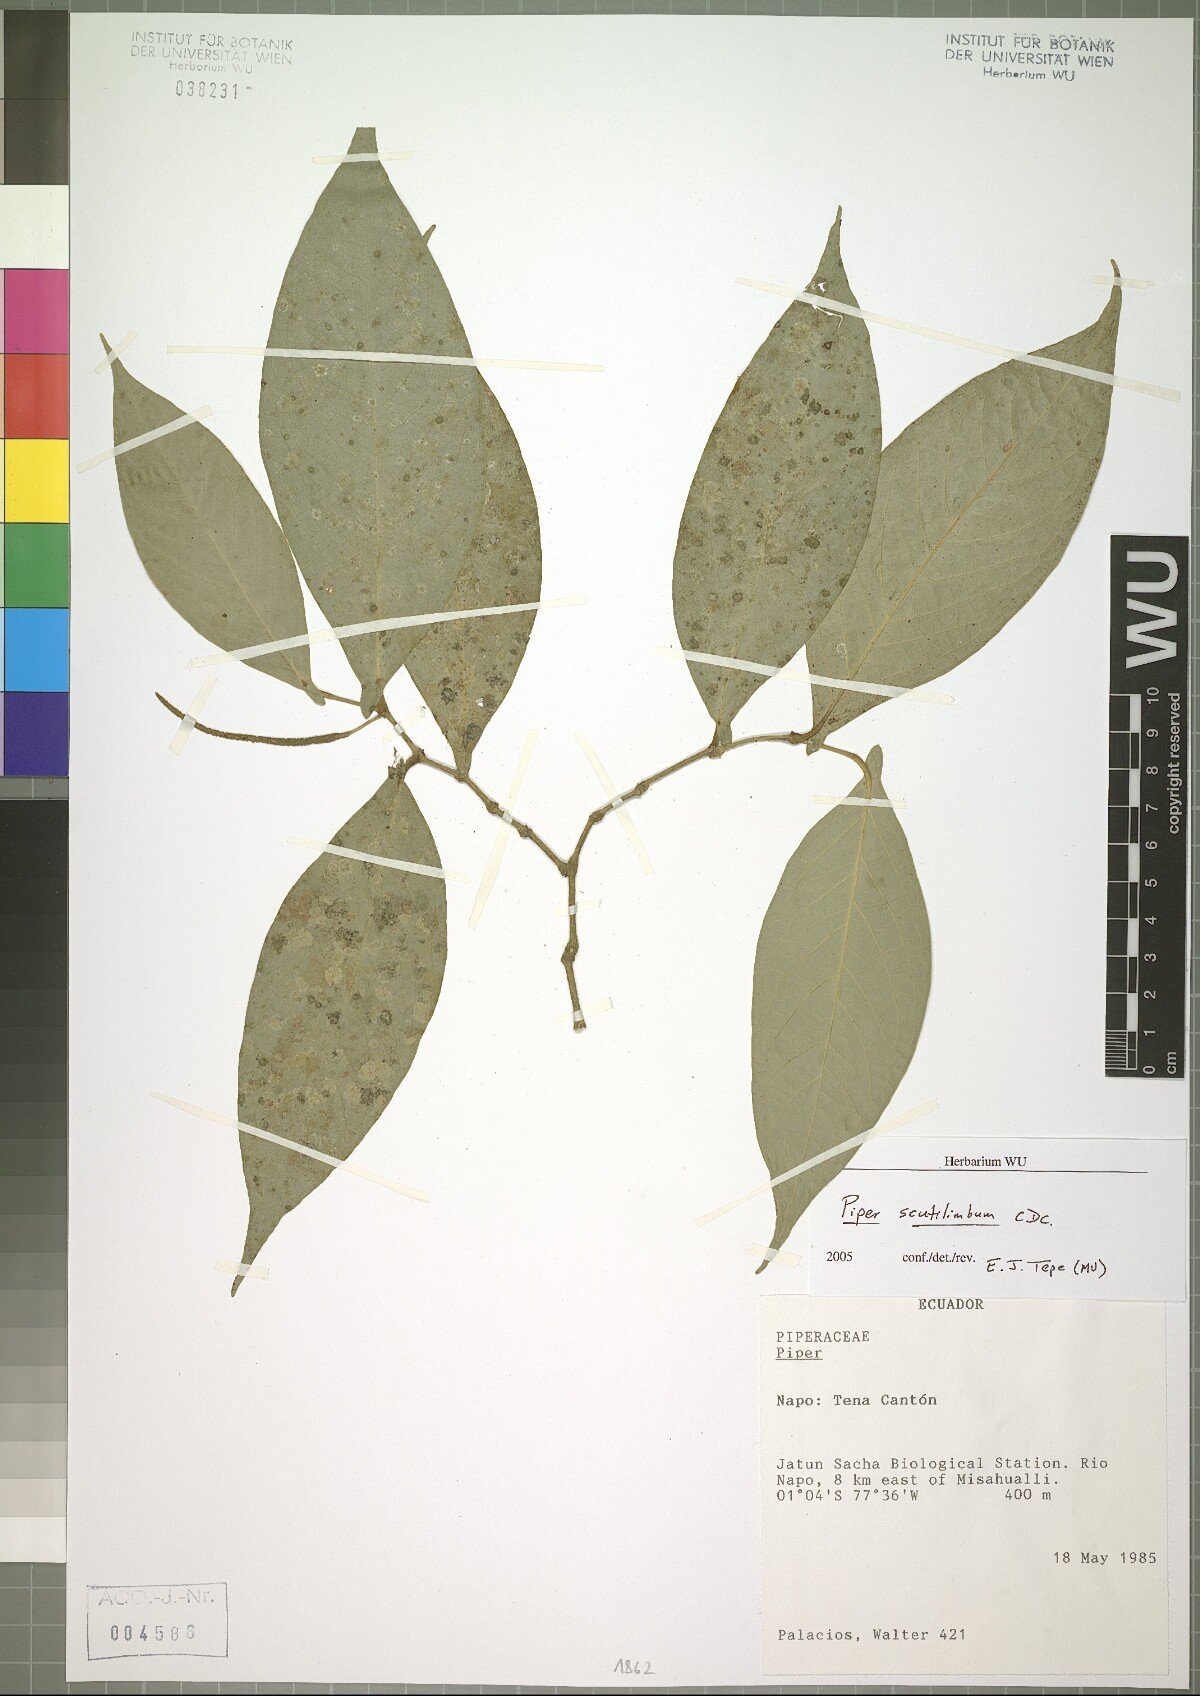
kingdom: Plantae
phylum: Tracheophyta
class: Magnoliopsida
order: Piperales
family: Piperaceae
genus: Piper
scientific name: Piper scutilimbum
